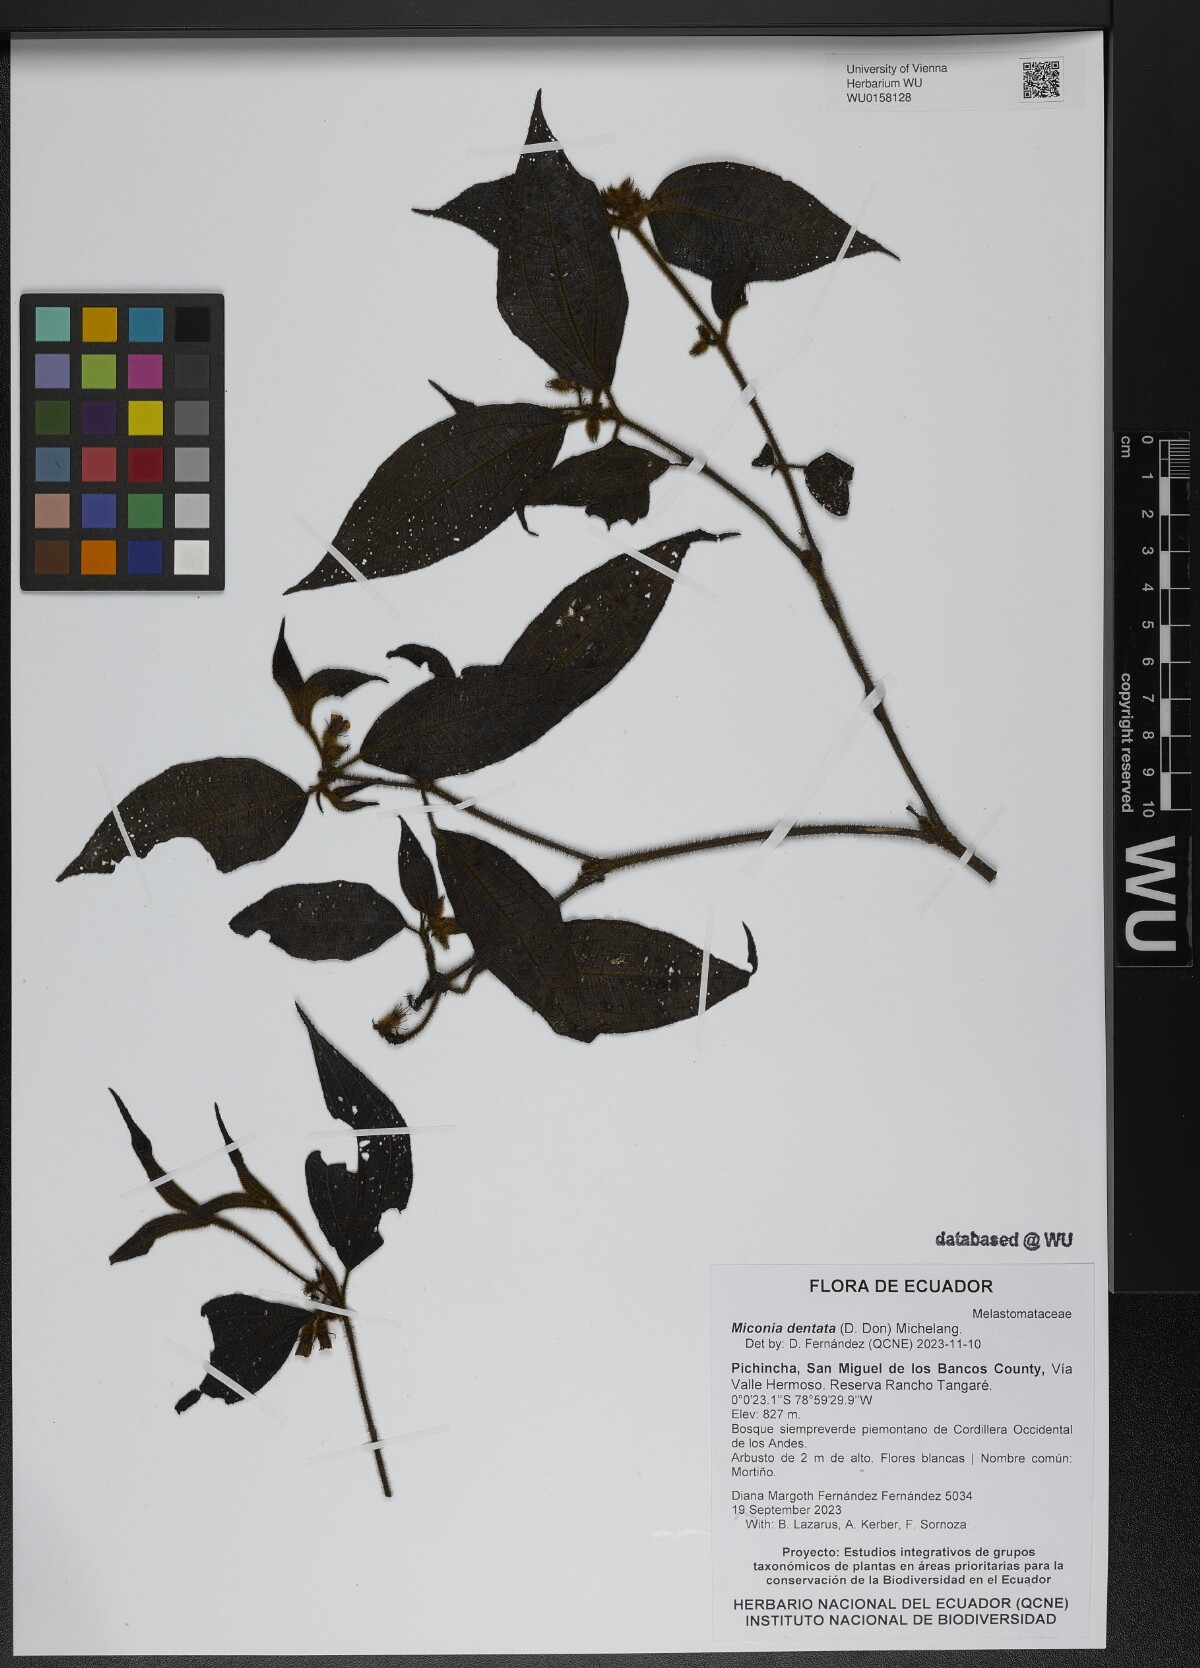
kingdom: Plantae
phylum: Tracheophyta
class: Magnoliopsida
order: Myrtales
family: Melastomataceae
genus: Miconia
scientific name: Miconia dentata
